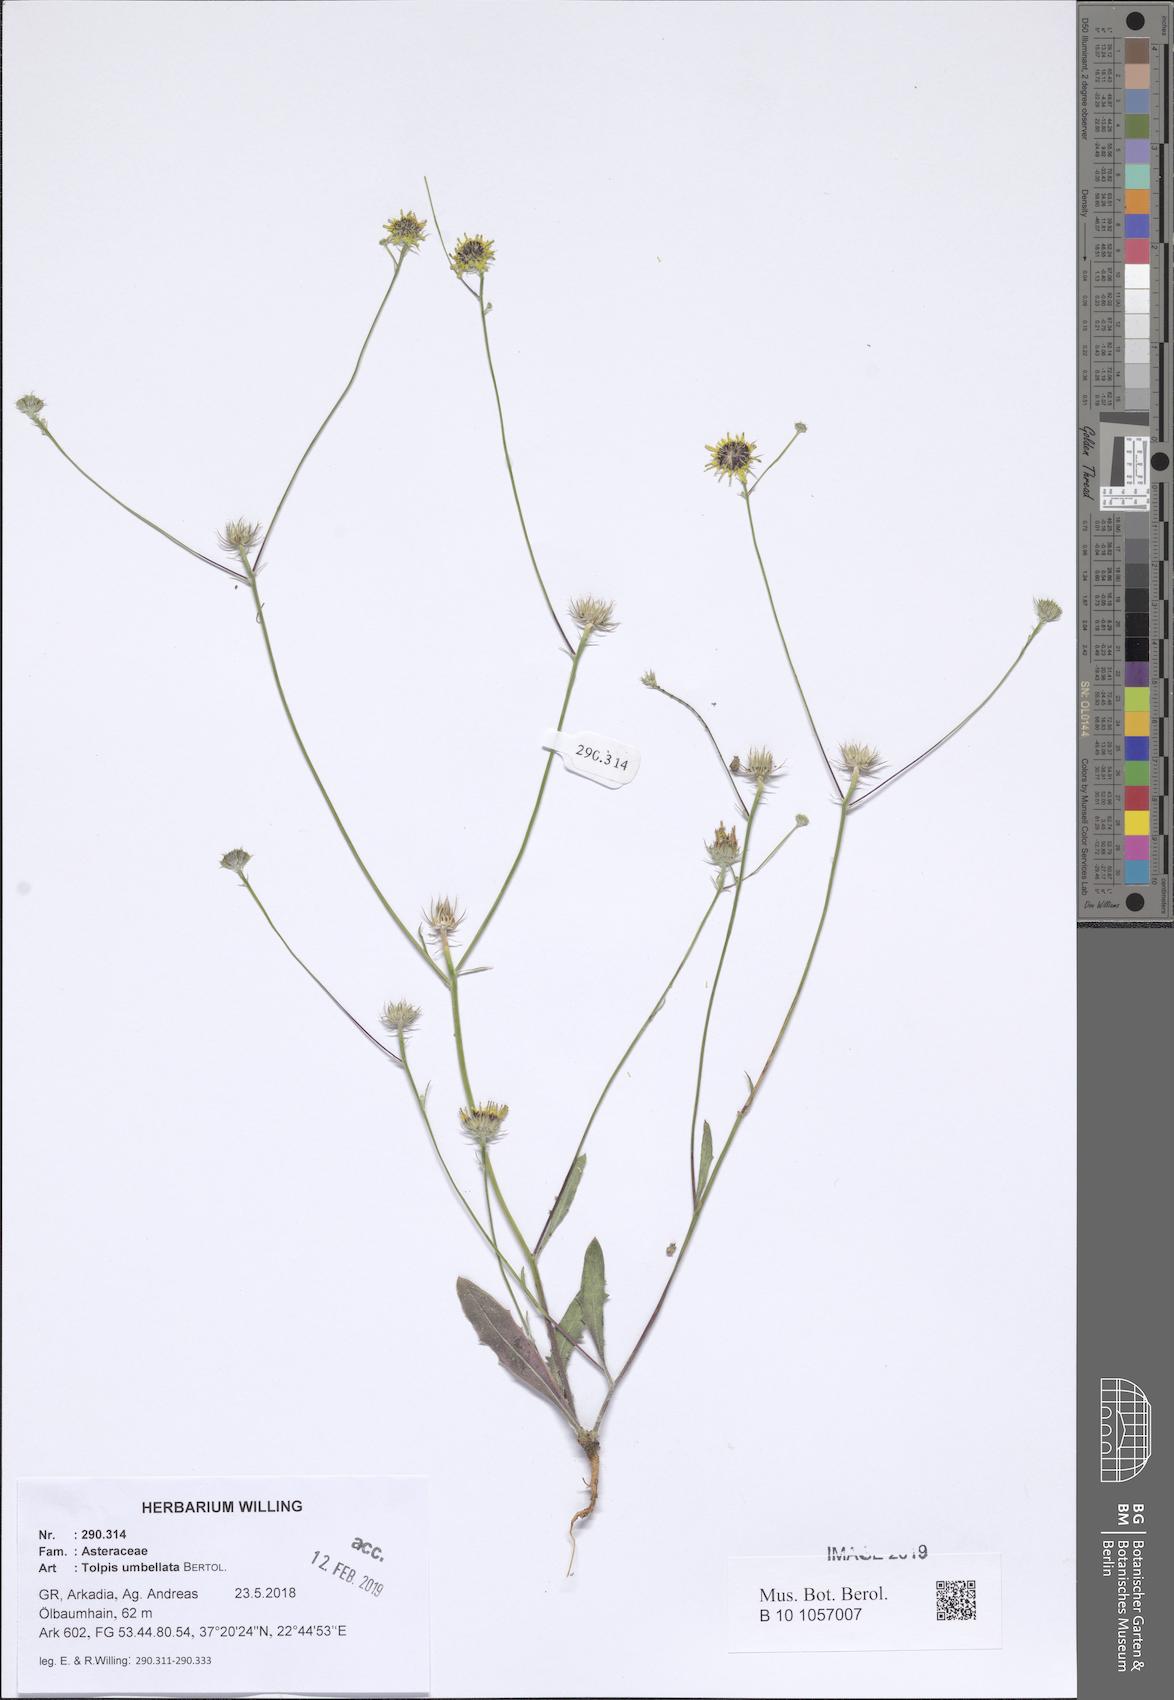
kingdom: Plantae
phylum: Tracheophyta
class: Magnoliopsida
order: Asterales
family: Asteraceae
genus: Tolpis
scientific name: Tolpis umbellata
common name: Yellow hawkweed
